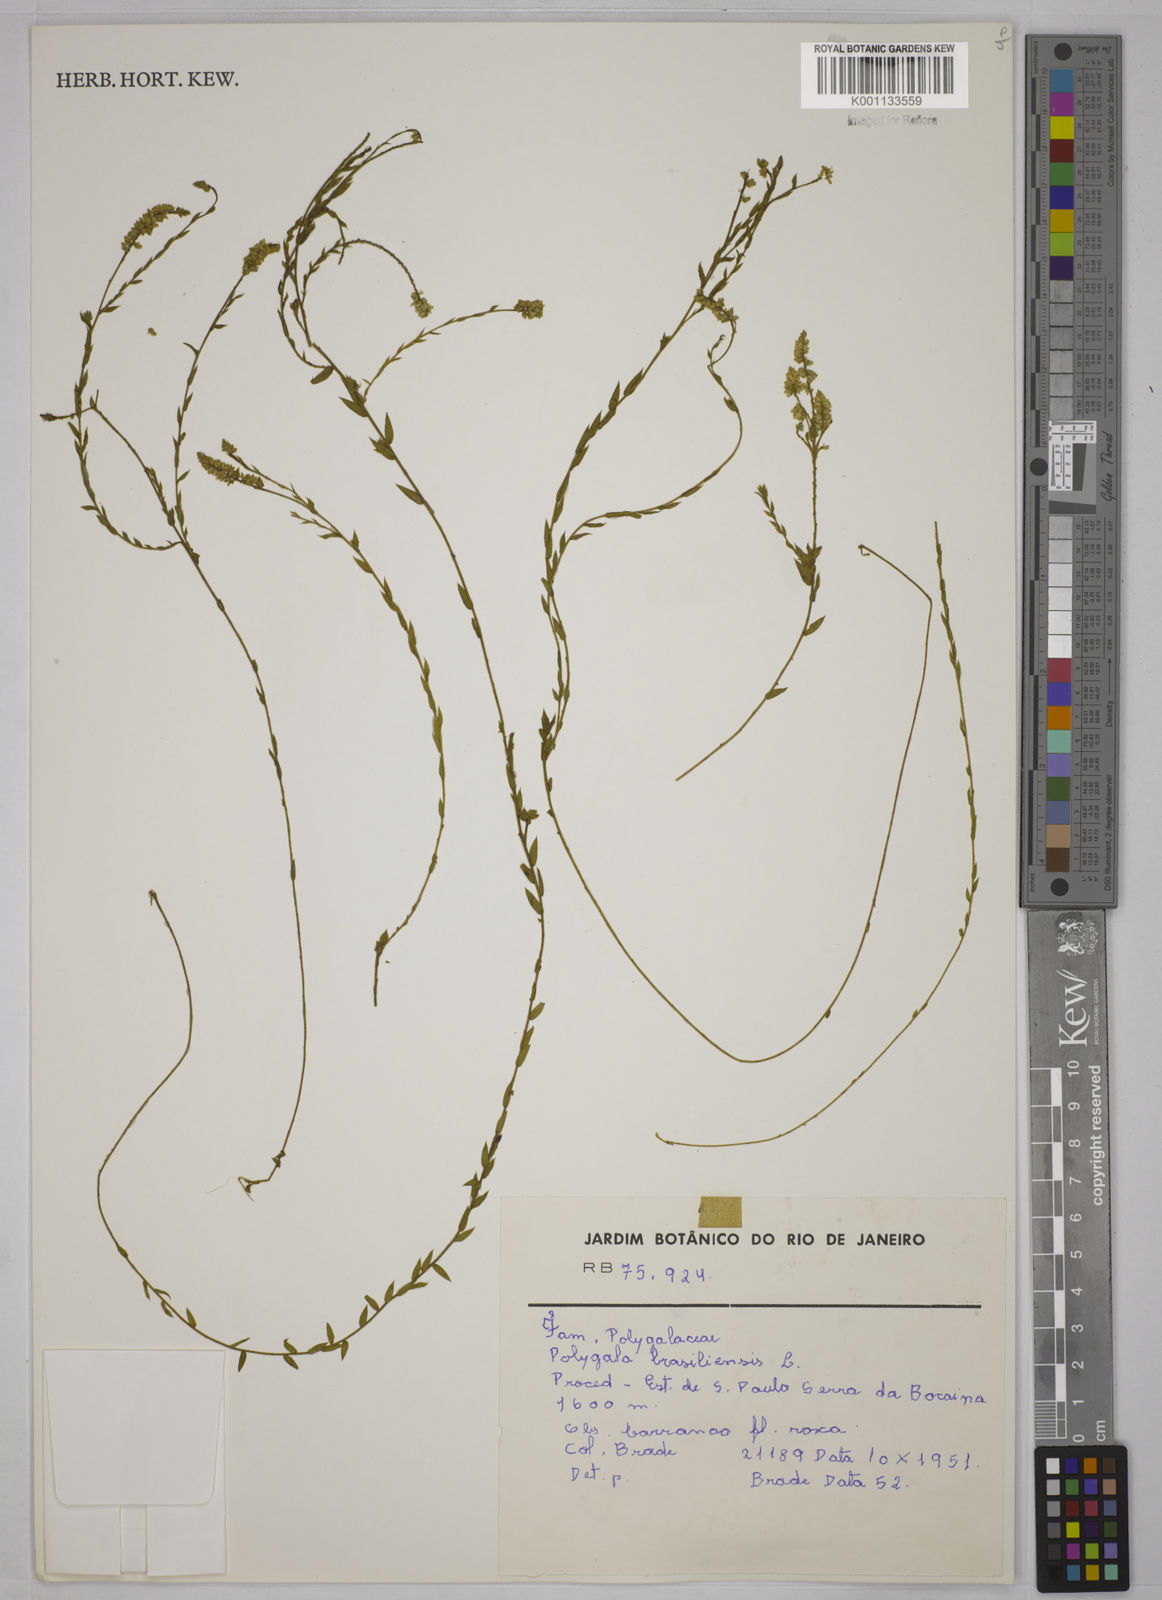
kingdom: Plantae
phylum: Tracheophyta
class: Magnoliopsida
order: Fabales
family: Polygalaceae
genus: Polygala
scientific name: Polygala brasiliensis
